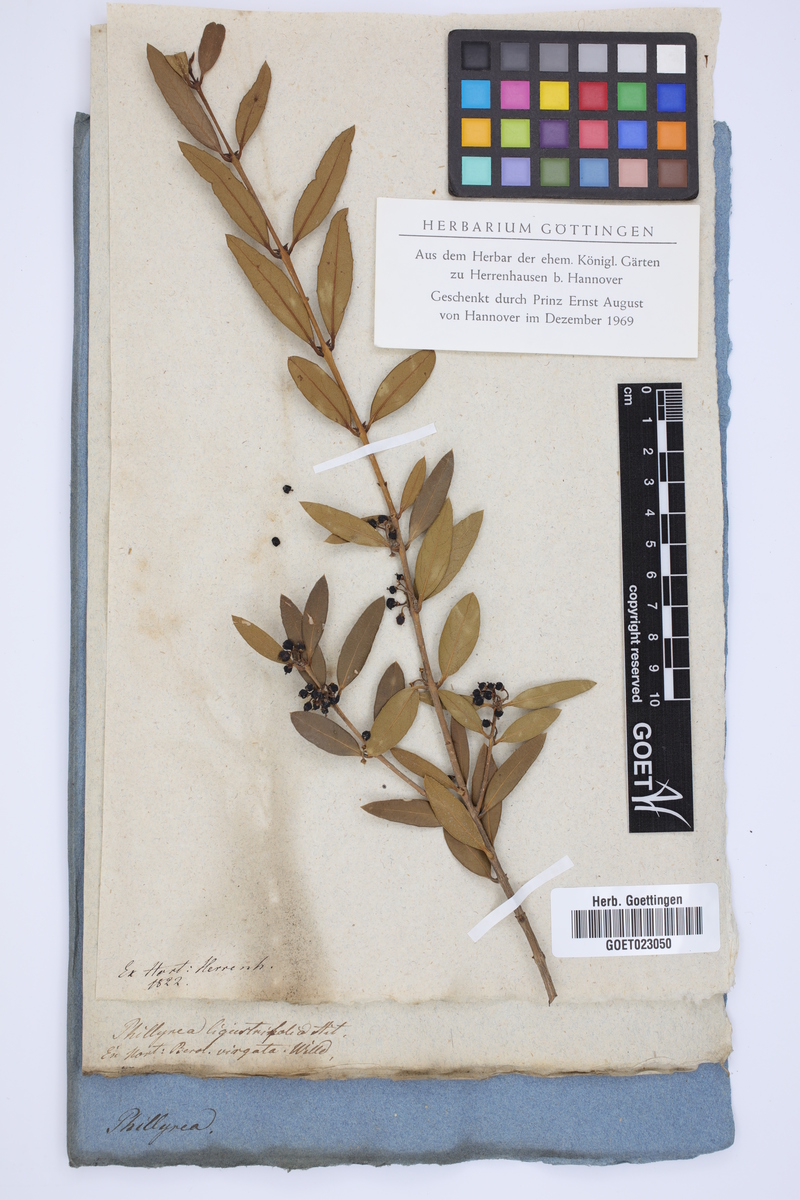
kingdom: Plantae
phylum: Tracheophyta
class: Magnoliopsida
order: Lamiales
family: Oleaceae
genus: Phillyrea
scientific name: Phillyrea latifolia
